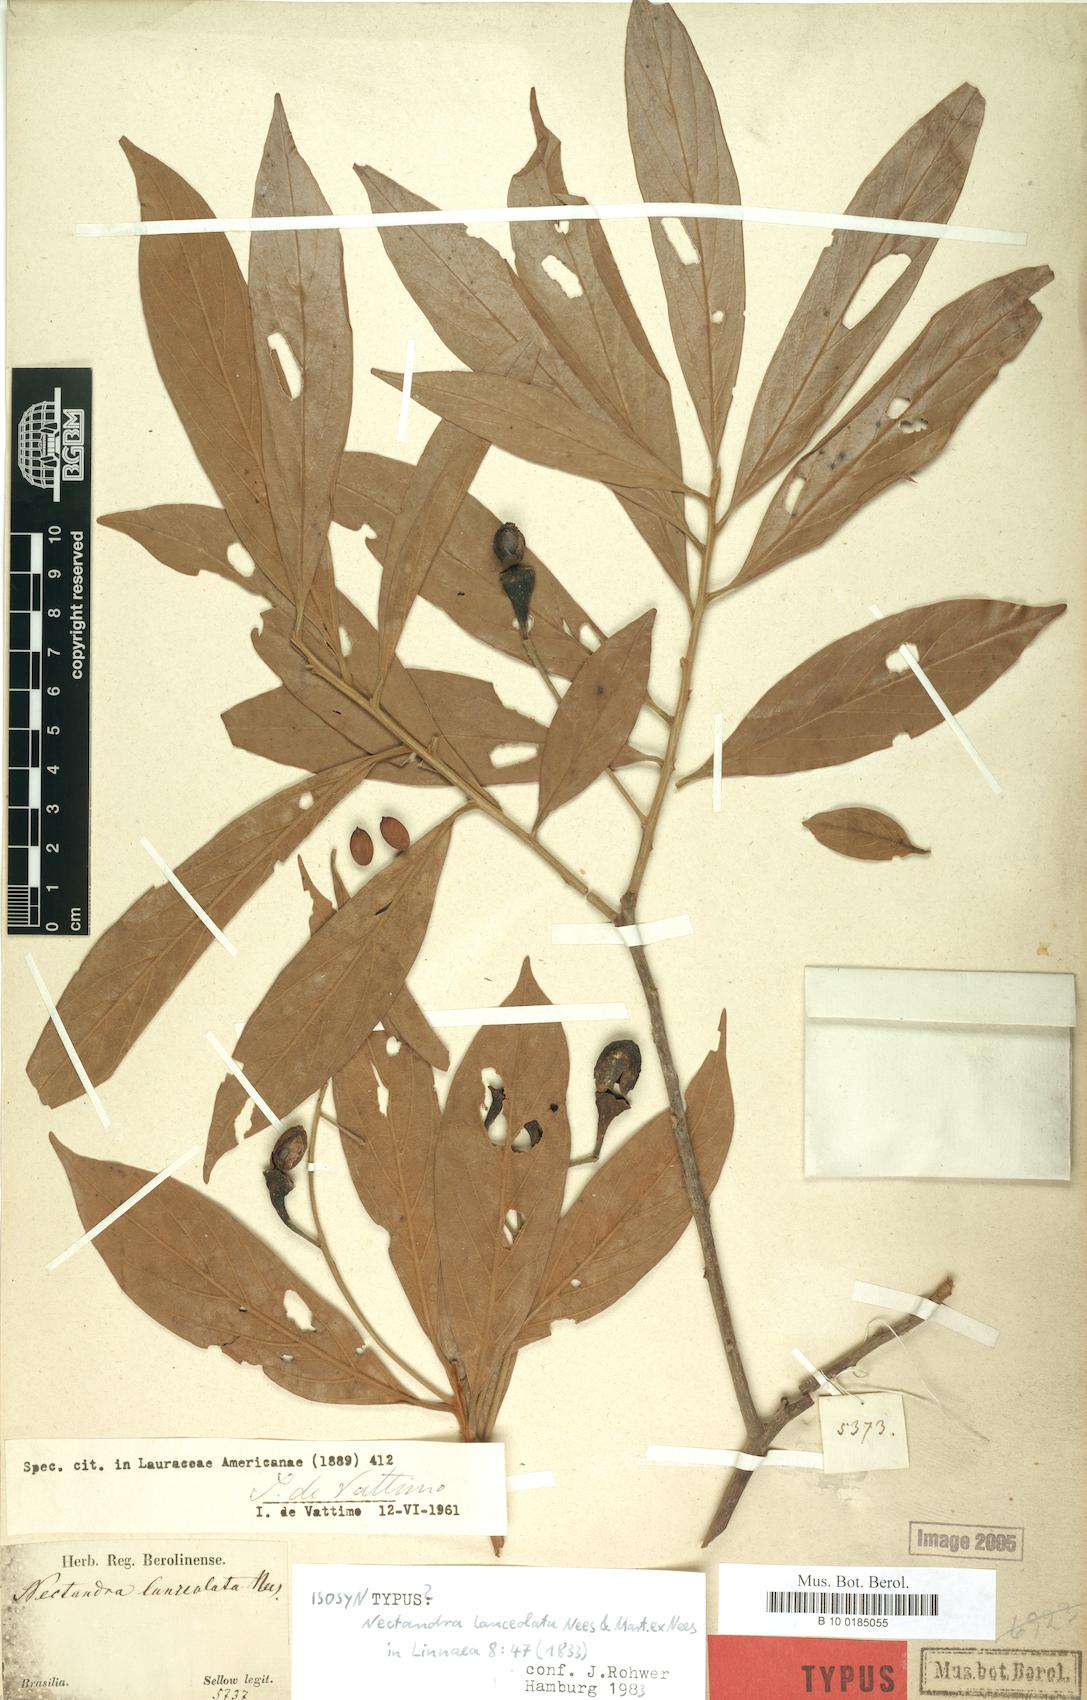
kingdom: Plantae
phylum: Tracheophyta
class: Magnoliopsida
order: Laurales
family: Lauraceae
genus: Nectandra
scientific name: Nectandra lanceolata
